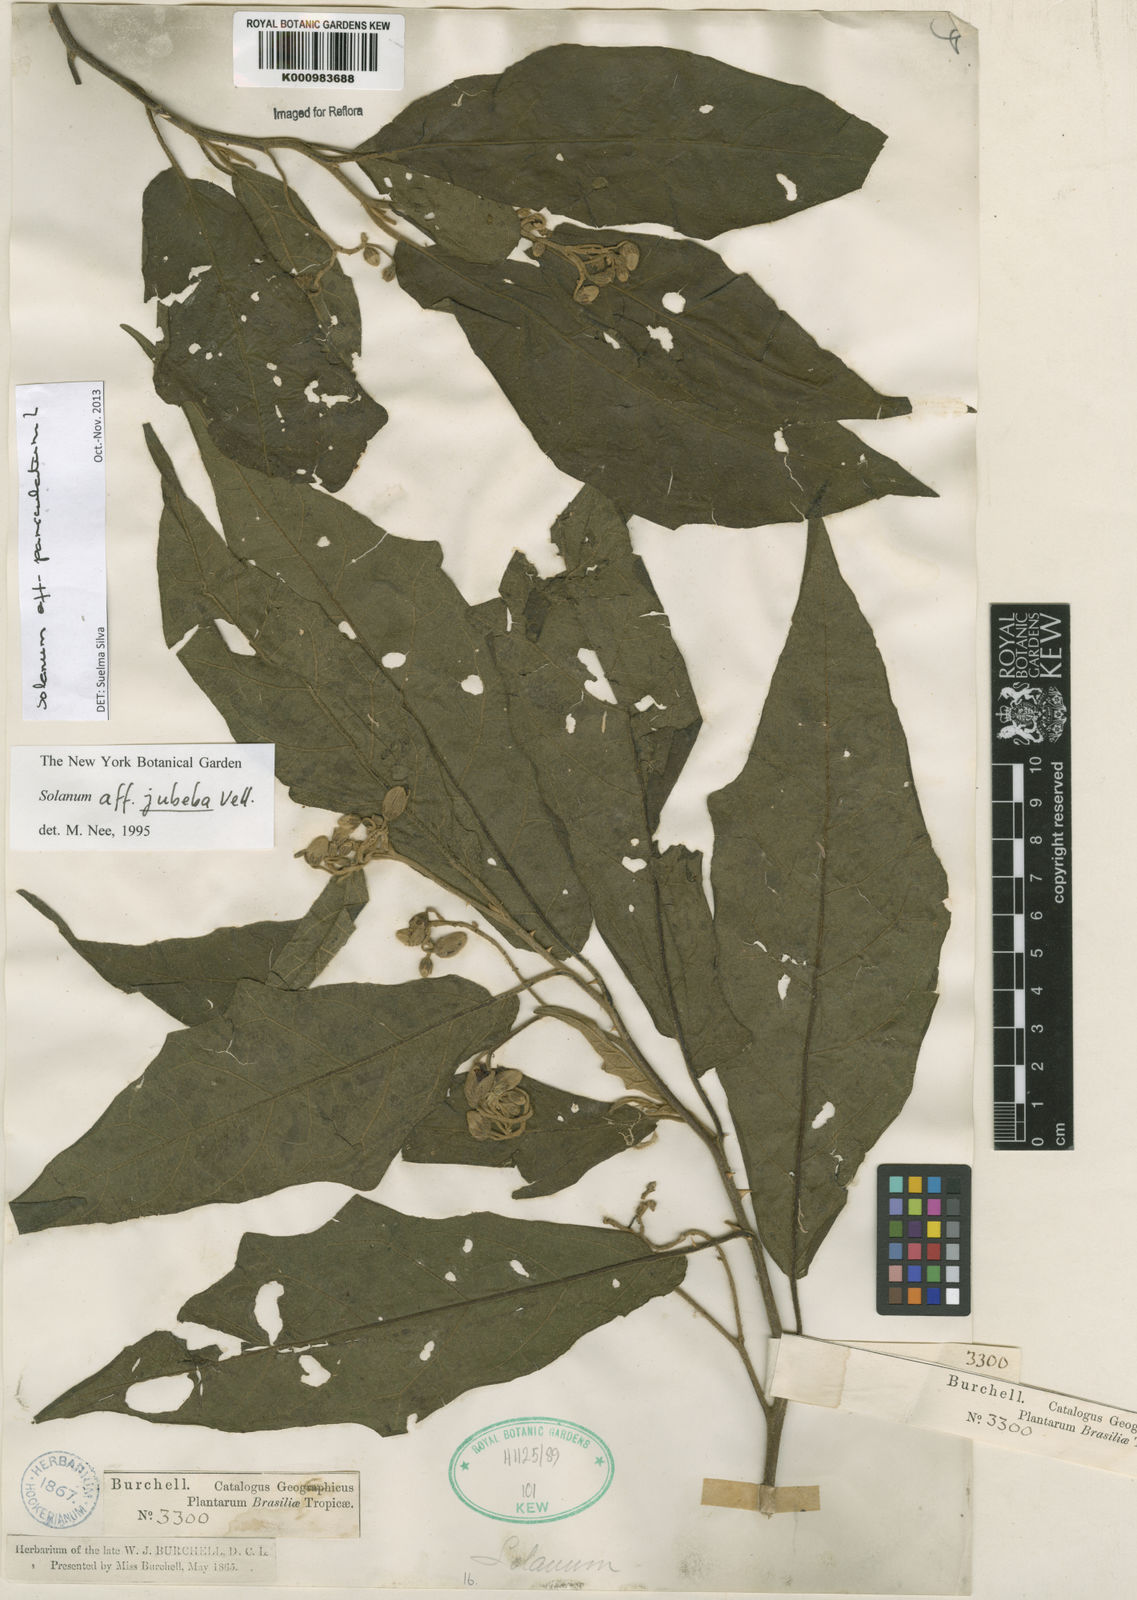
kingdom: Plantae
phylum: Tracheophyta
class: Magnoliopsida
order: Solanales
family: Solanaceae
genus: Solanum
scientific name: Solanum paniculatum
